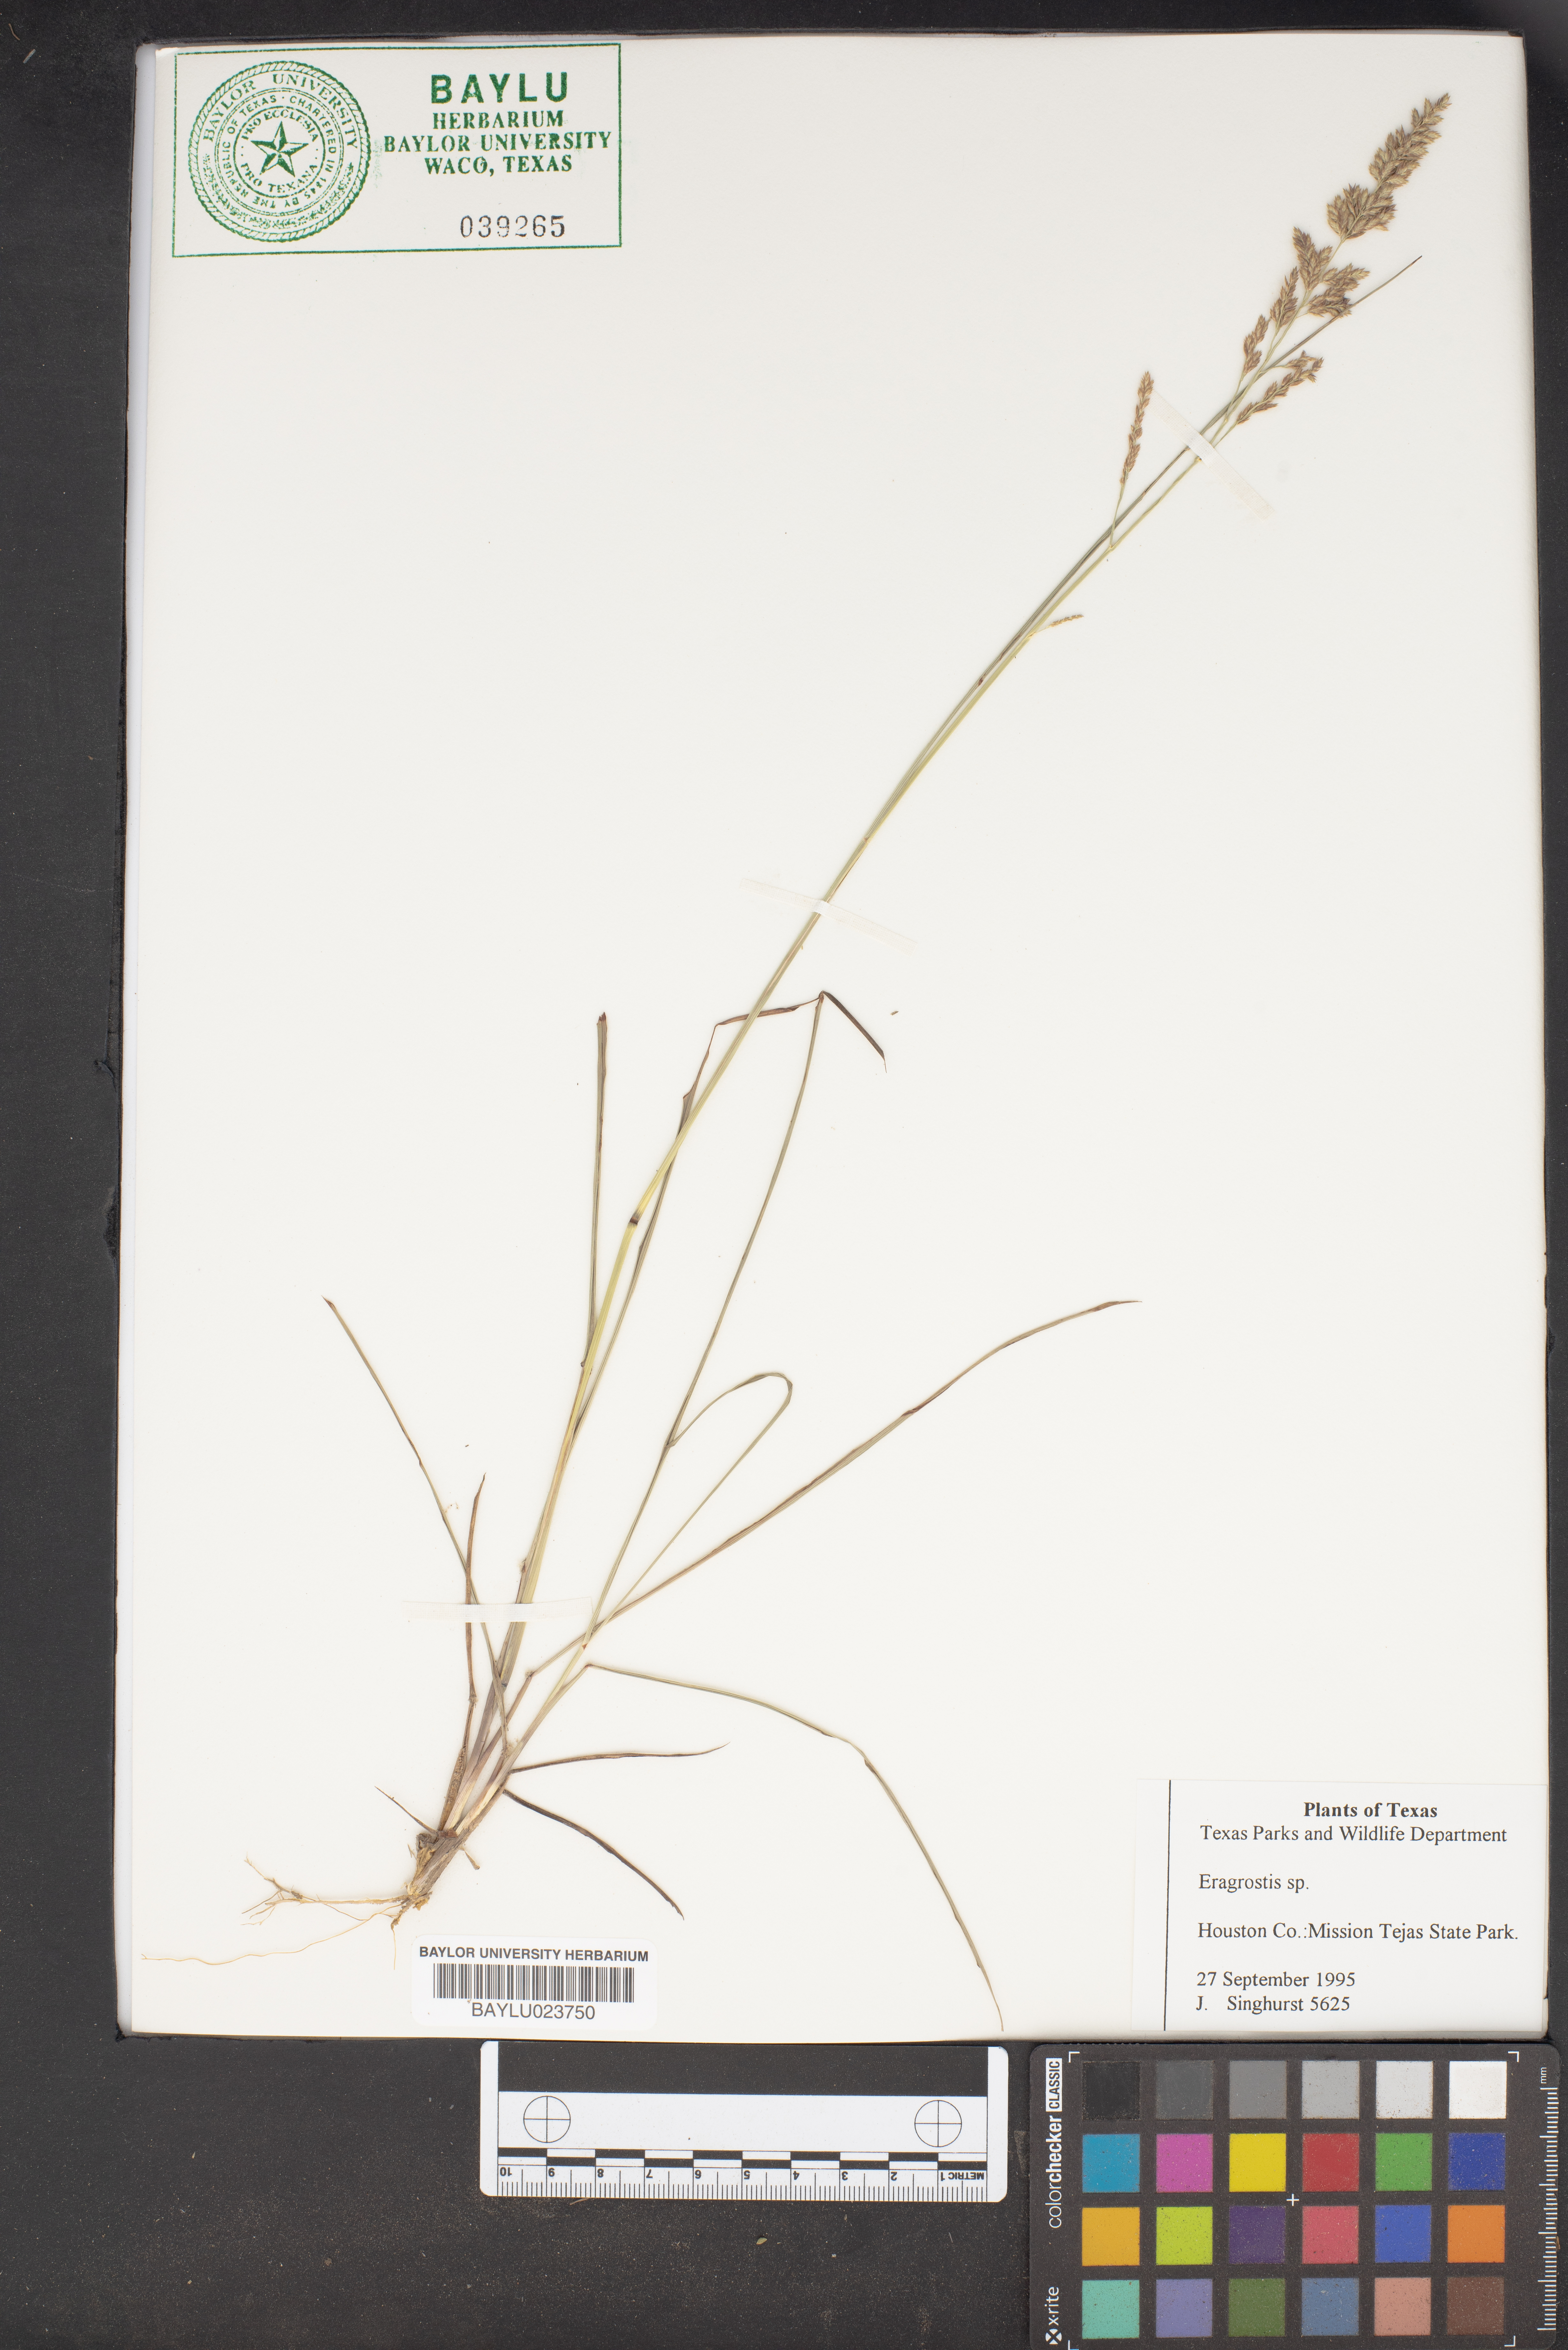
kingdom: Plantae
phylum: Tracheophyta
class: Liliopsida
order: Poales
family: Poaceae
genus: Eragrostis
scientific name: Eragrostis
